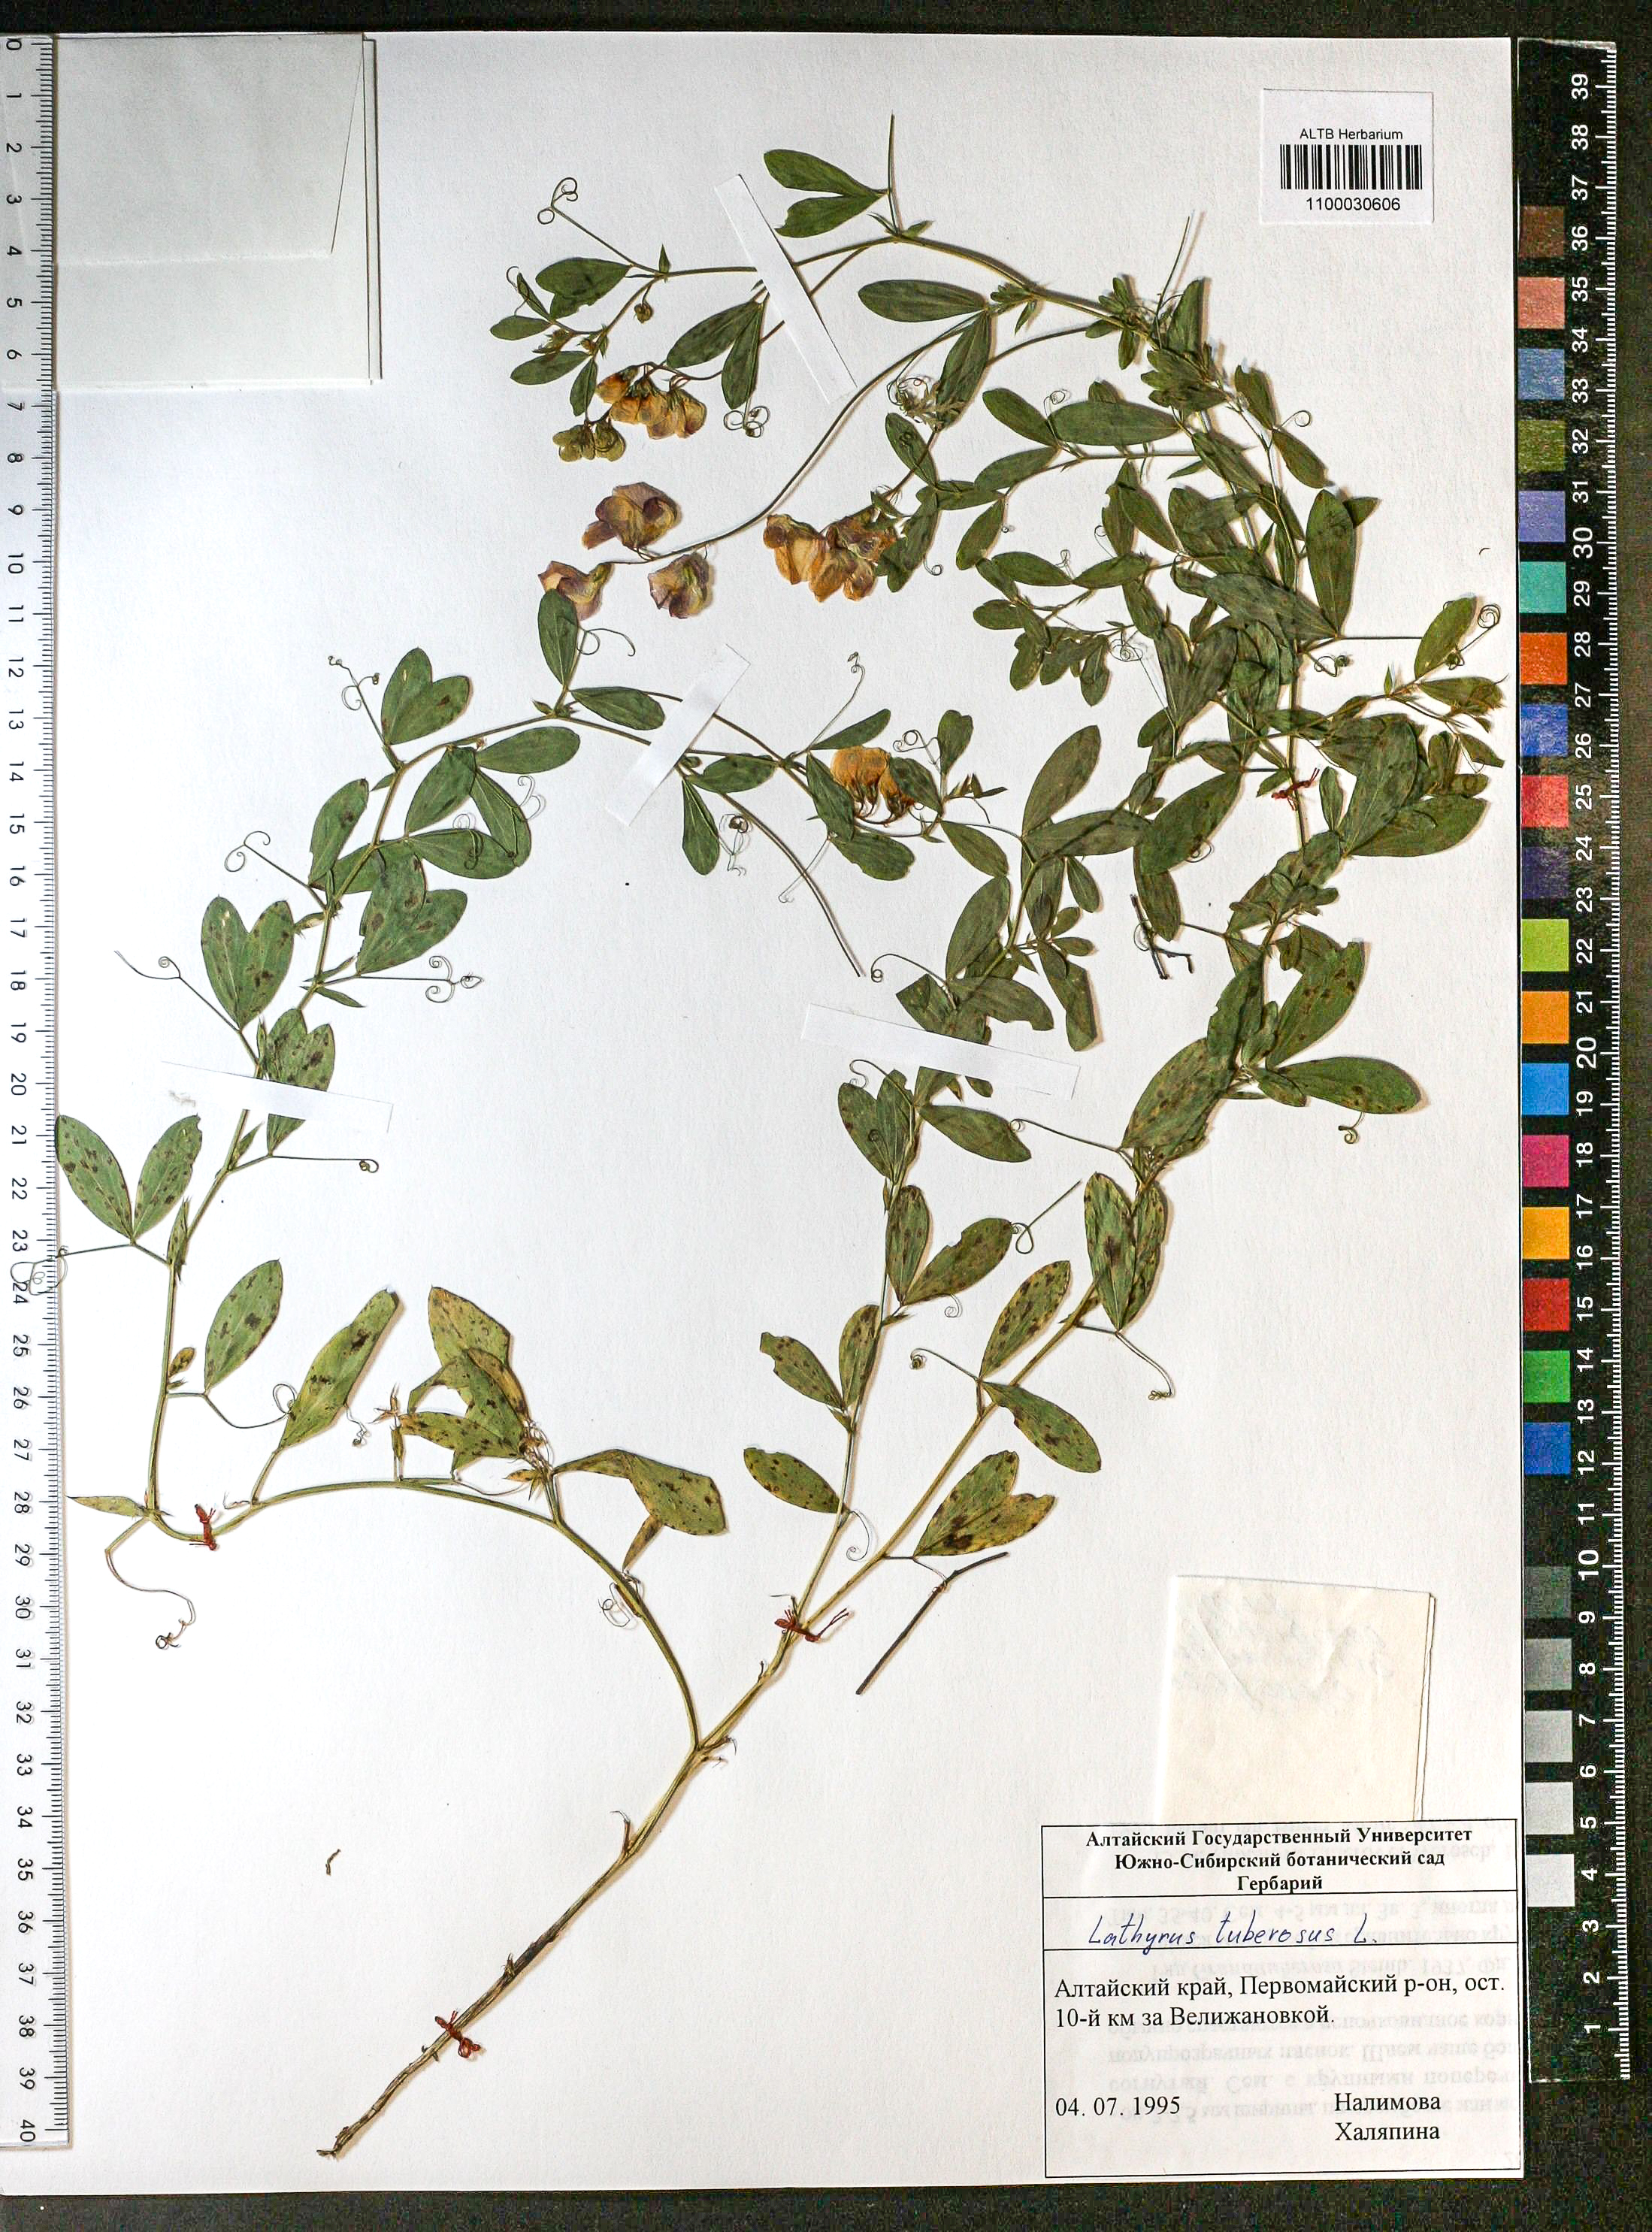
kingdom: Plantae
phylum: Tracheophyta
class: Magnoliopsida
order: Fabales
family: Fabaceae
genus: Lathyrus
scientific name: Lathyrus tuberosus
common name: Tuberous pea
